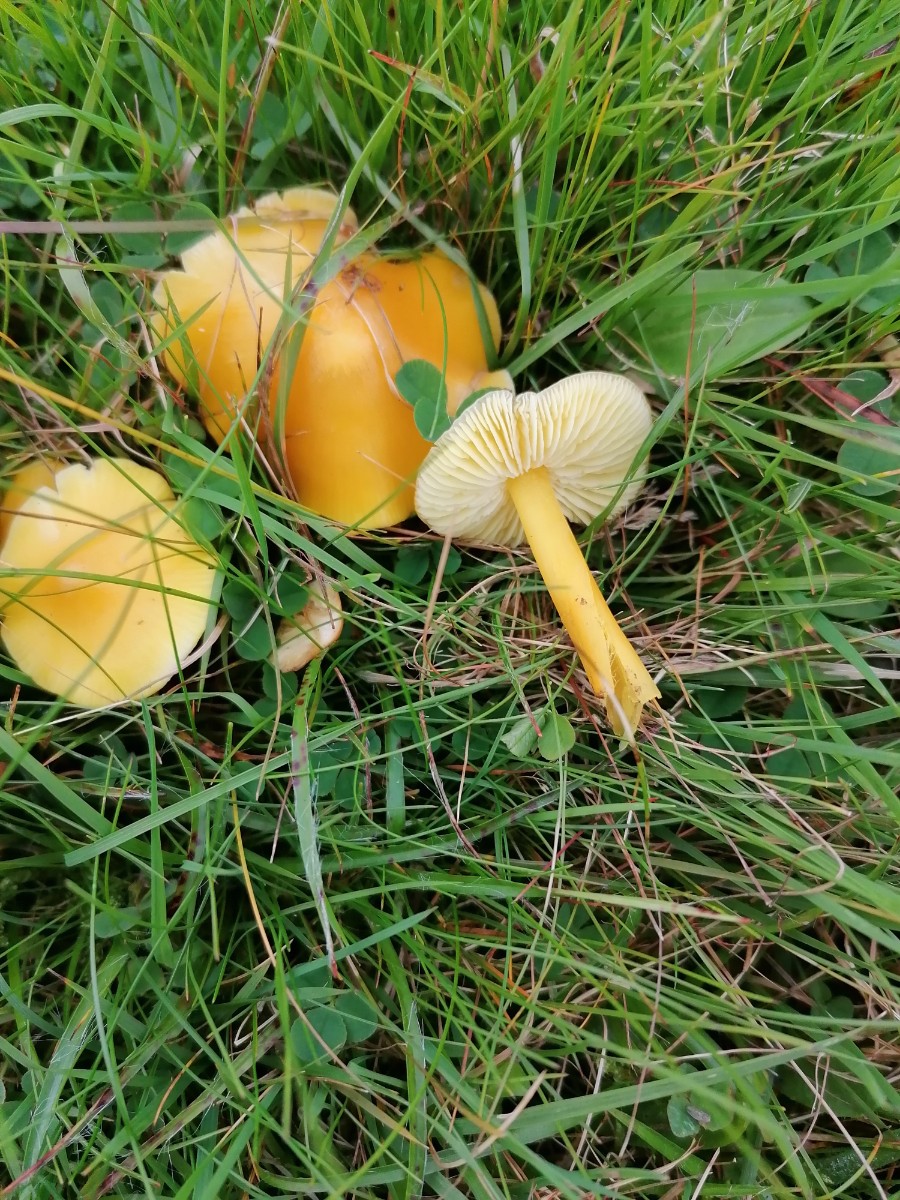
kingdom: Fungi
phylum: Basidiomycota
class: Agaricomycetes
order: Agaricales
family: Hygrophoraceae
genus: Hygrocybe
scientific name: Hygrocybe chlorophana
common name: gul vokshat
